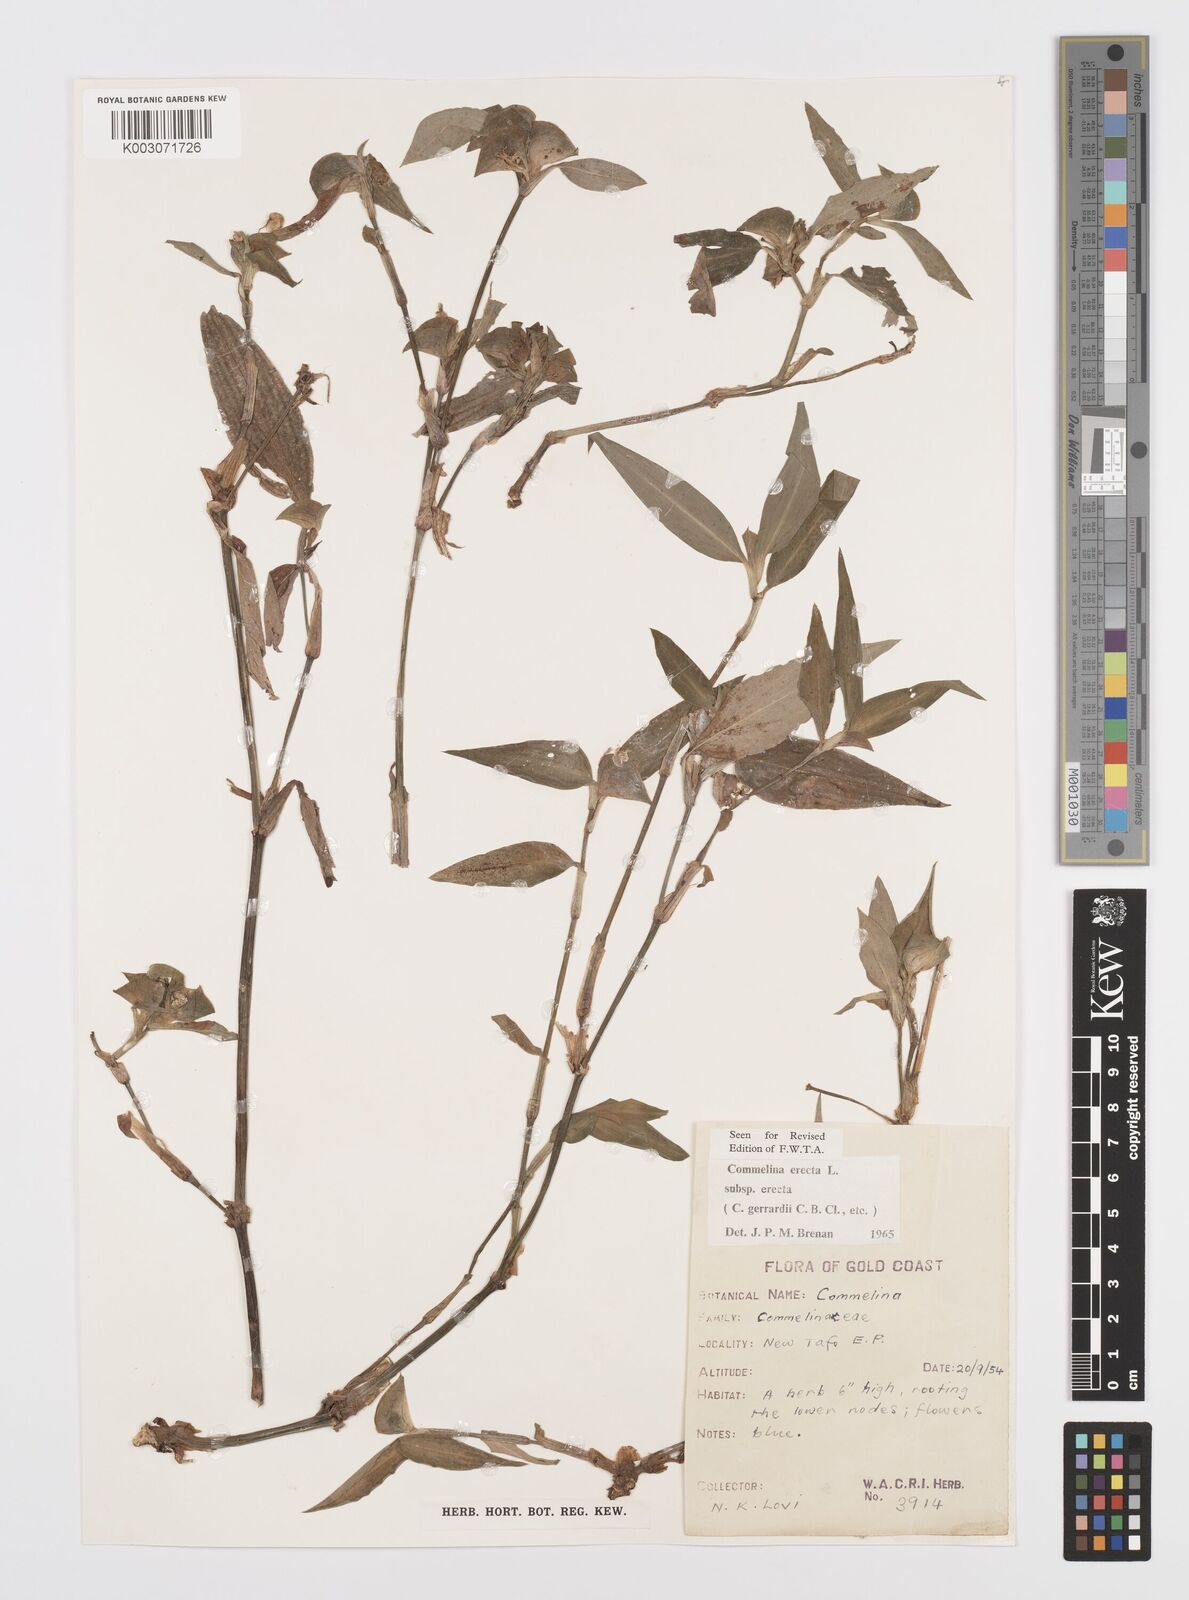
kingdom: Plantae
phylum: Tracheophyta
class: Liliopsida
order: Commelinales
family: Commelinaceae
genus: Commelina
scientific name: Commelina erecta
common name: Blousel blommetjie
